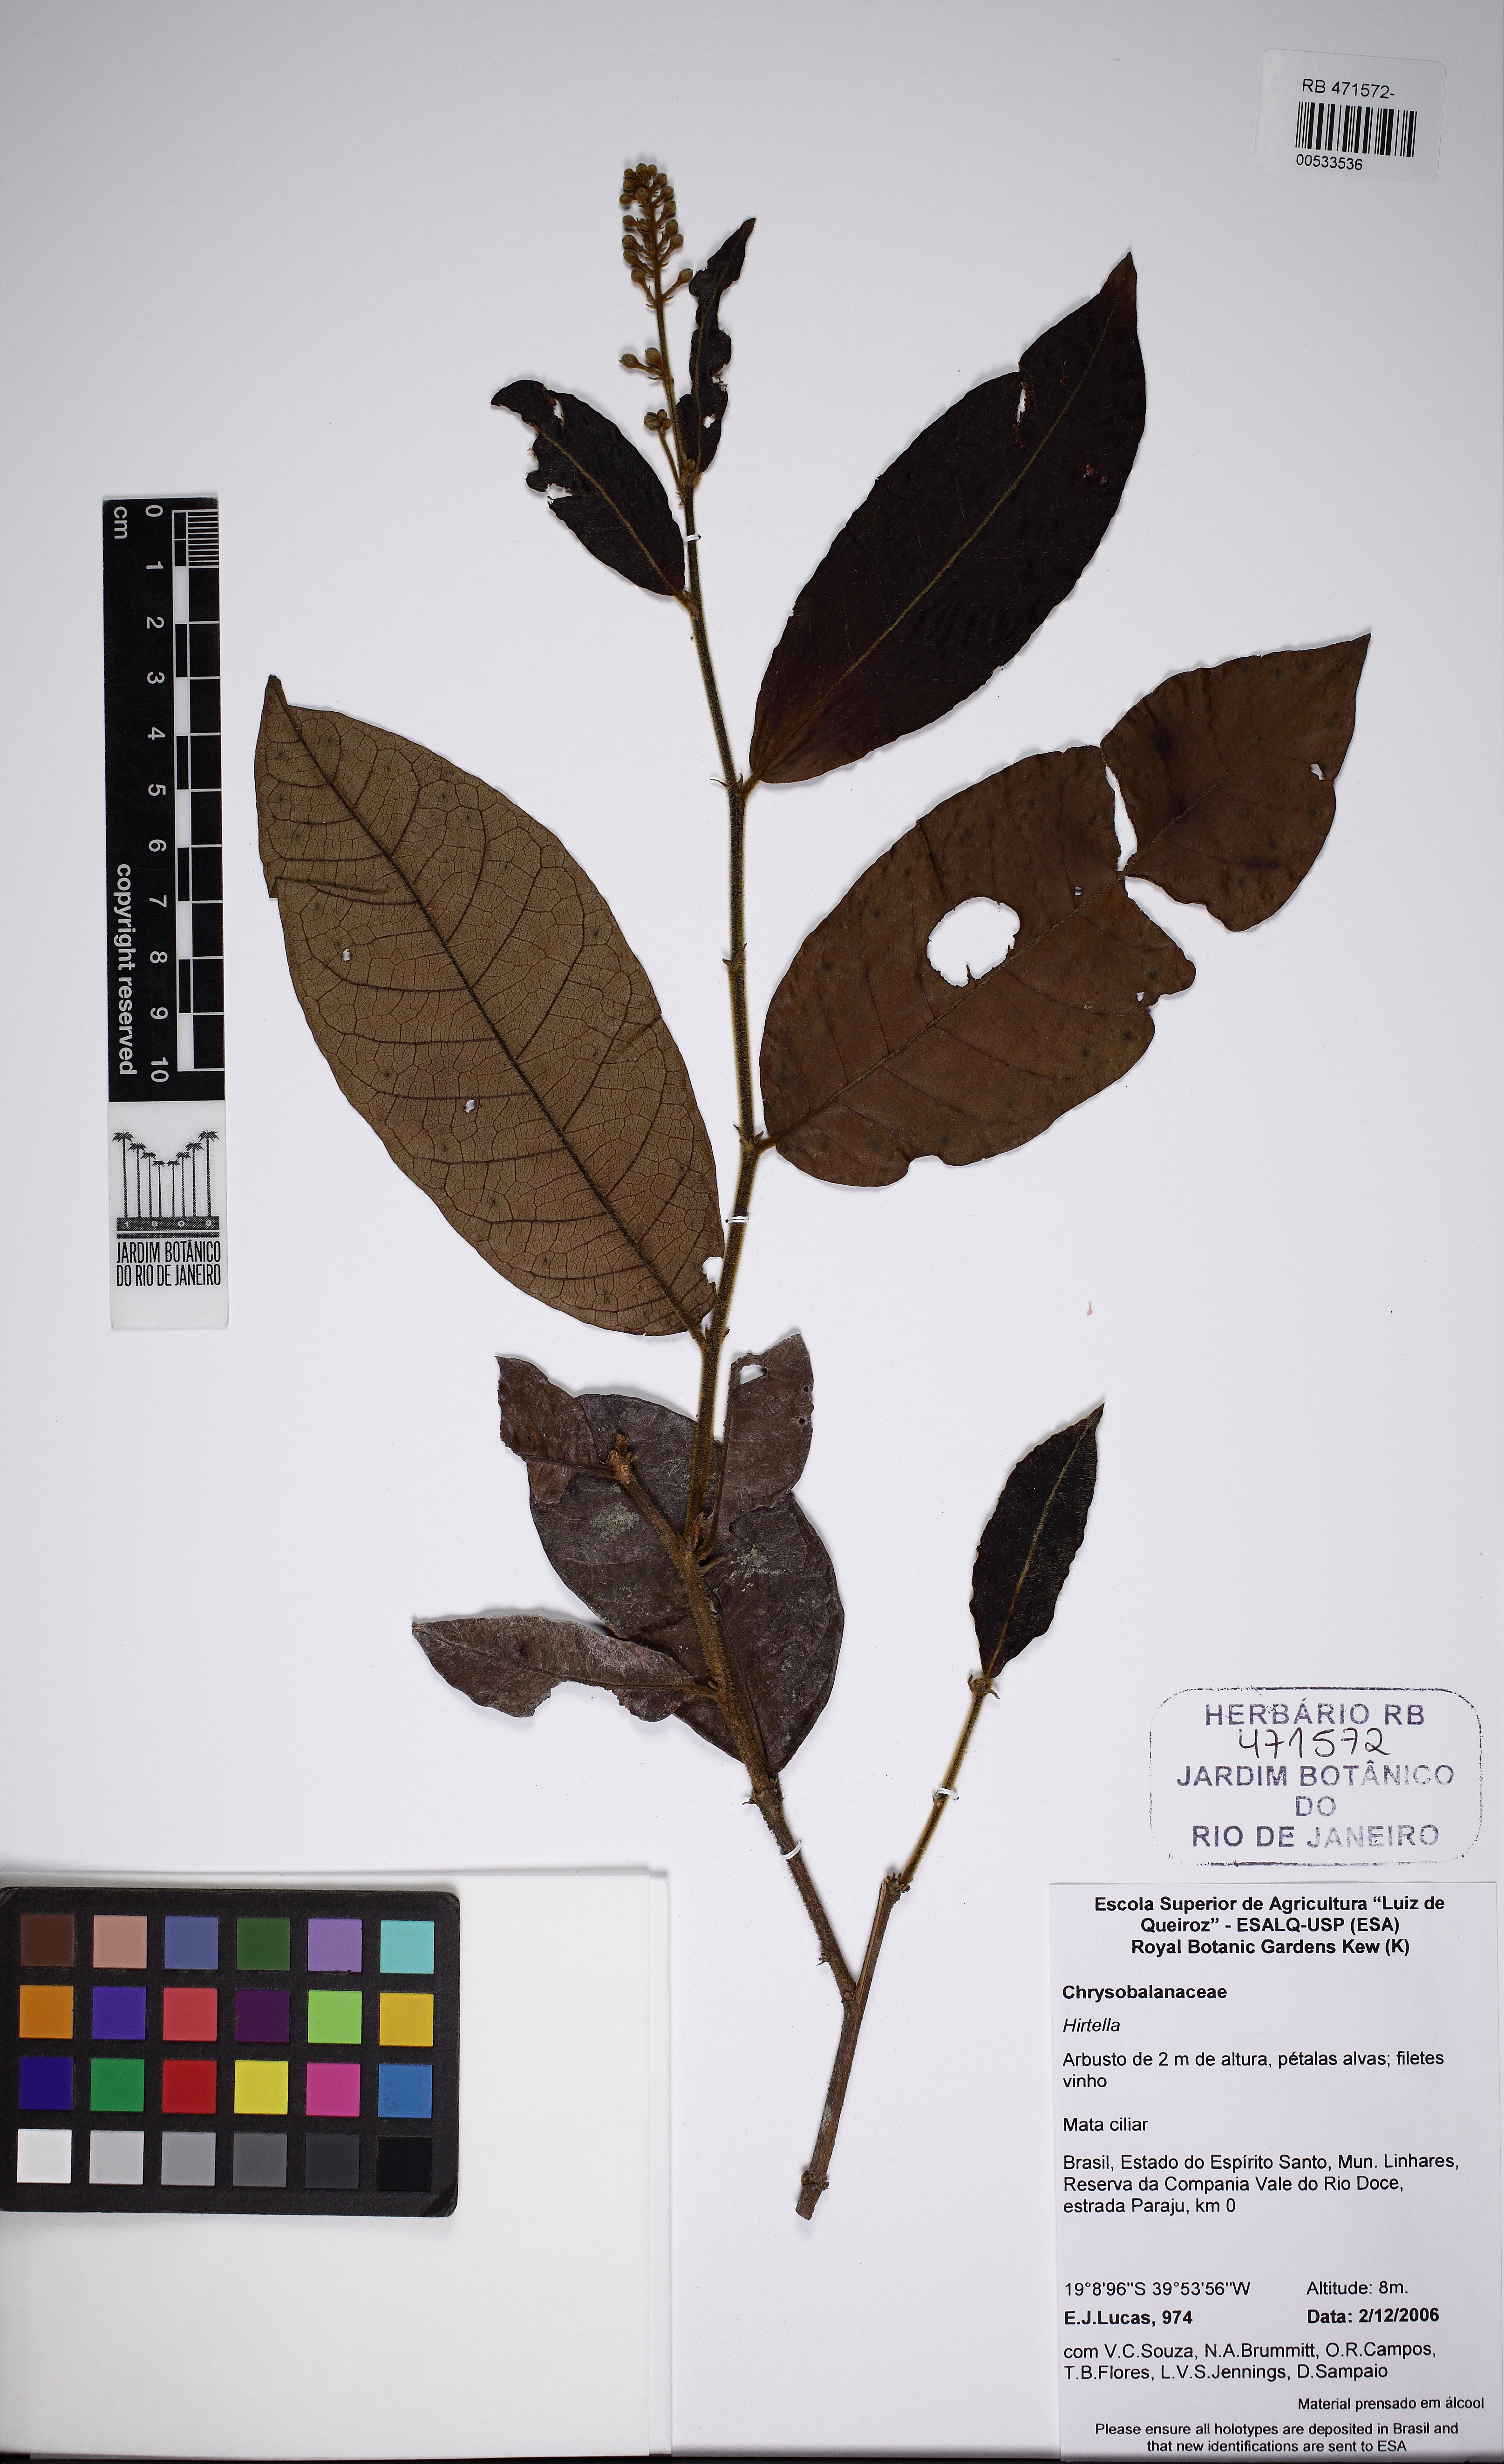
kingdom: Plantae
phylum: Tracheophyta
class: Magnoliopsida
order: Malpighiales
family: Chrysobalanaceae
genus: Hirtella
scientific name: Hirtella santosii
